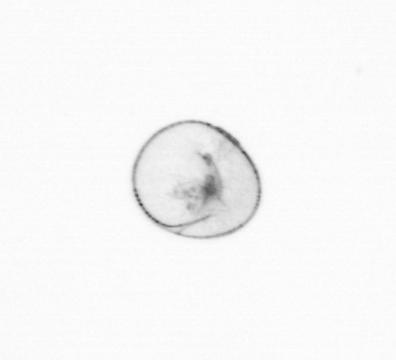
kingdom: Chromista
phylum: Myzozoa
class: Dinophyceae
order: Noctilucales
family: Noctilucaceae
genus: Noctiluca
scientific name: Noctiluca scintillans
